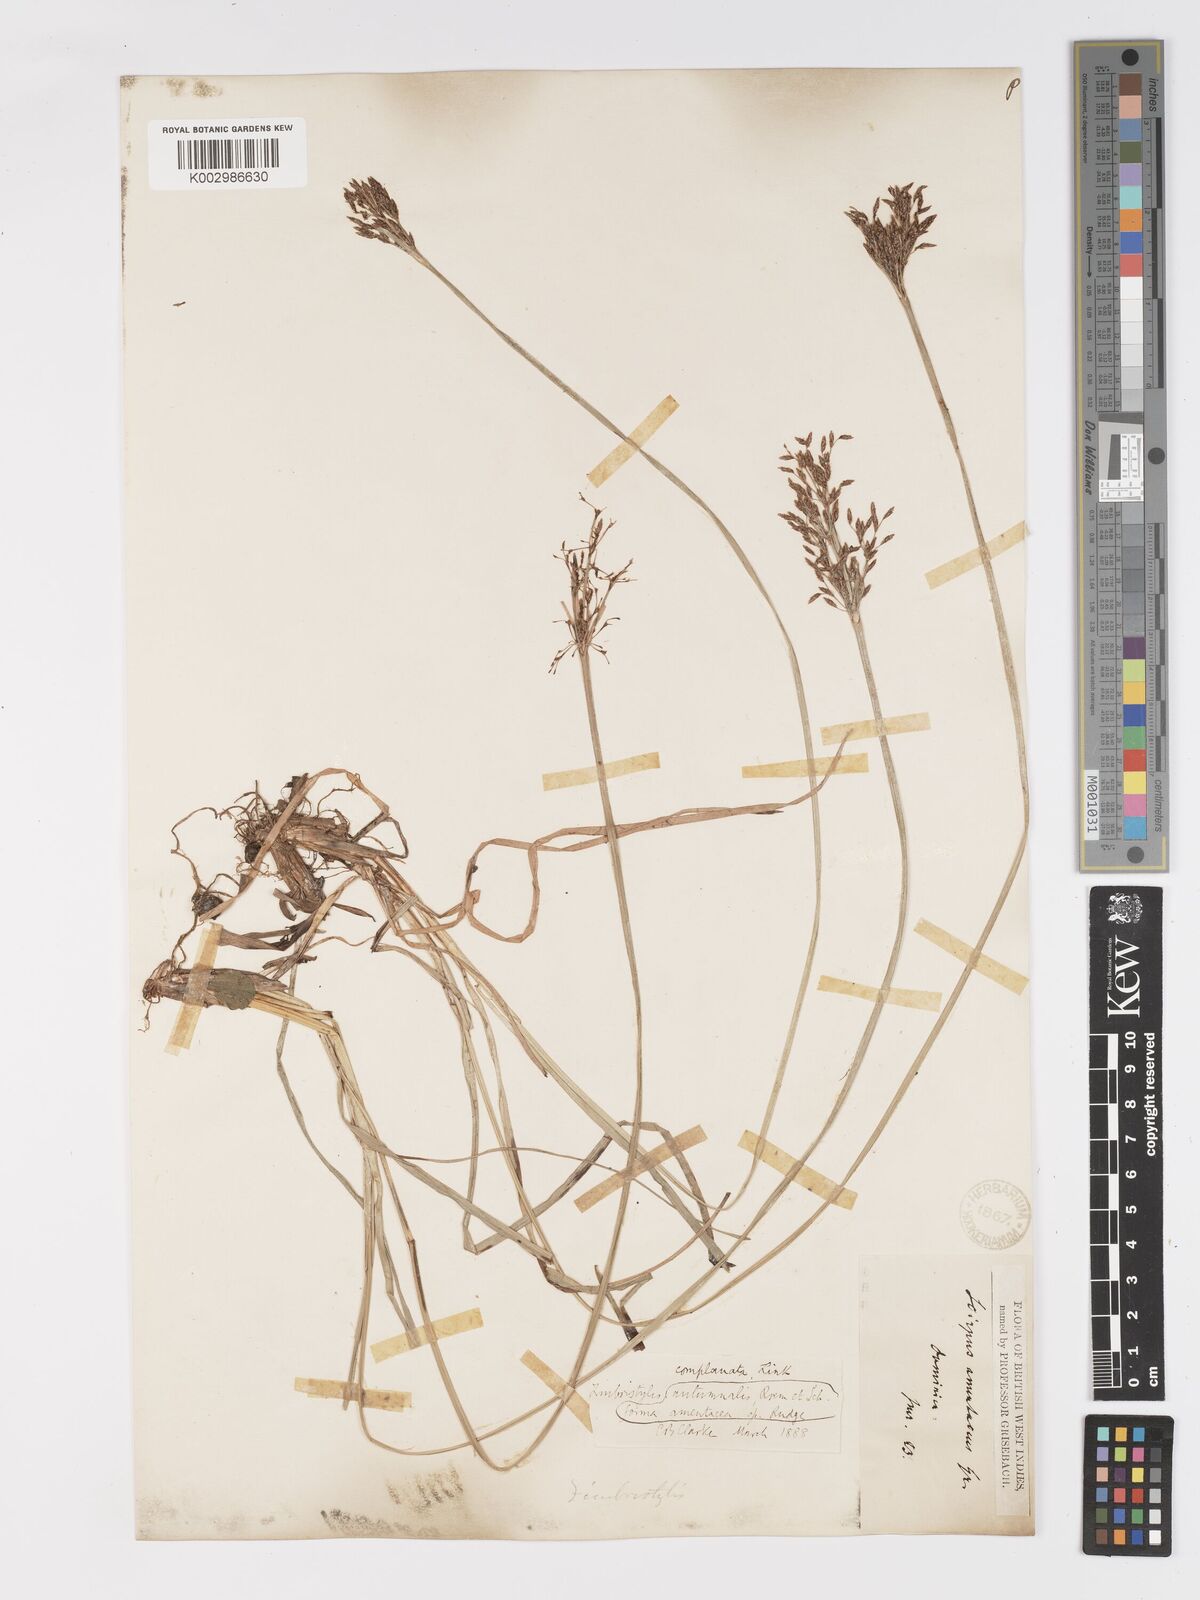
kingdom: Plantae
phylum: Tracheophyta
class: Liliopsida
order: Poales
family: Cyperaceae
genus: Fimbristylis
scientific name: Fimbristylis complanata
